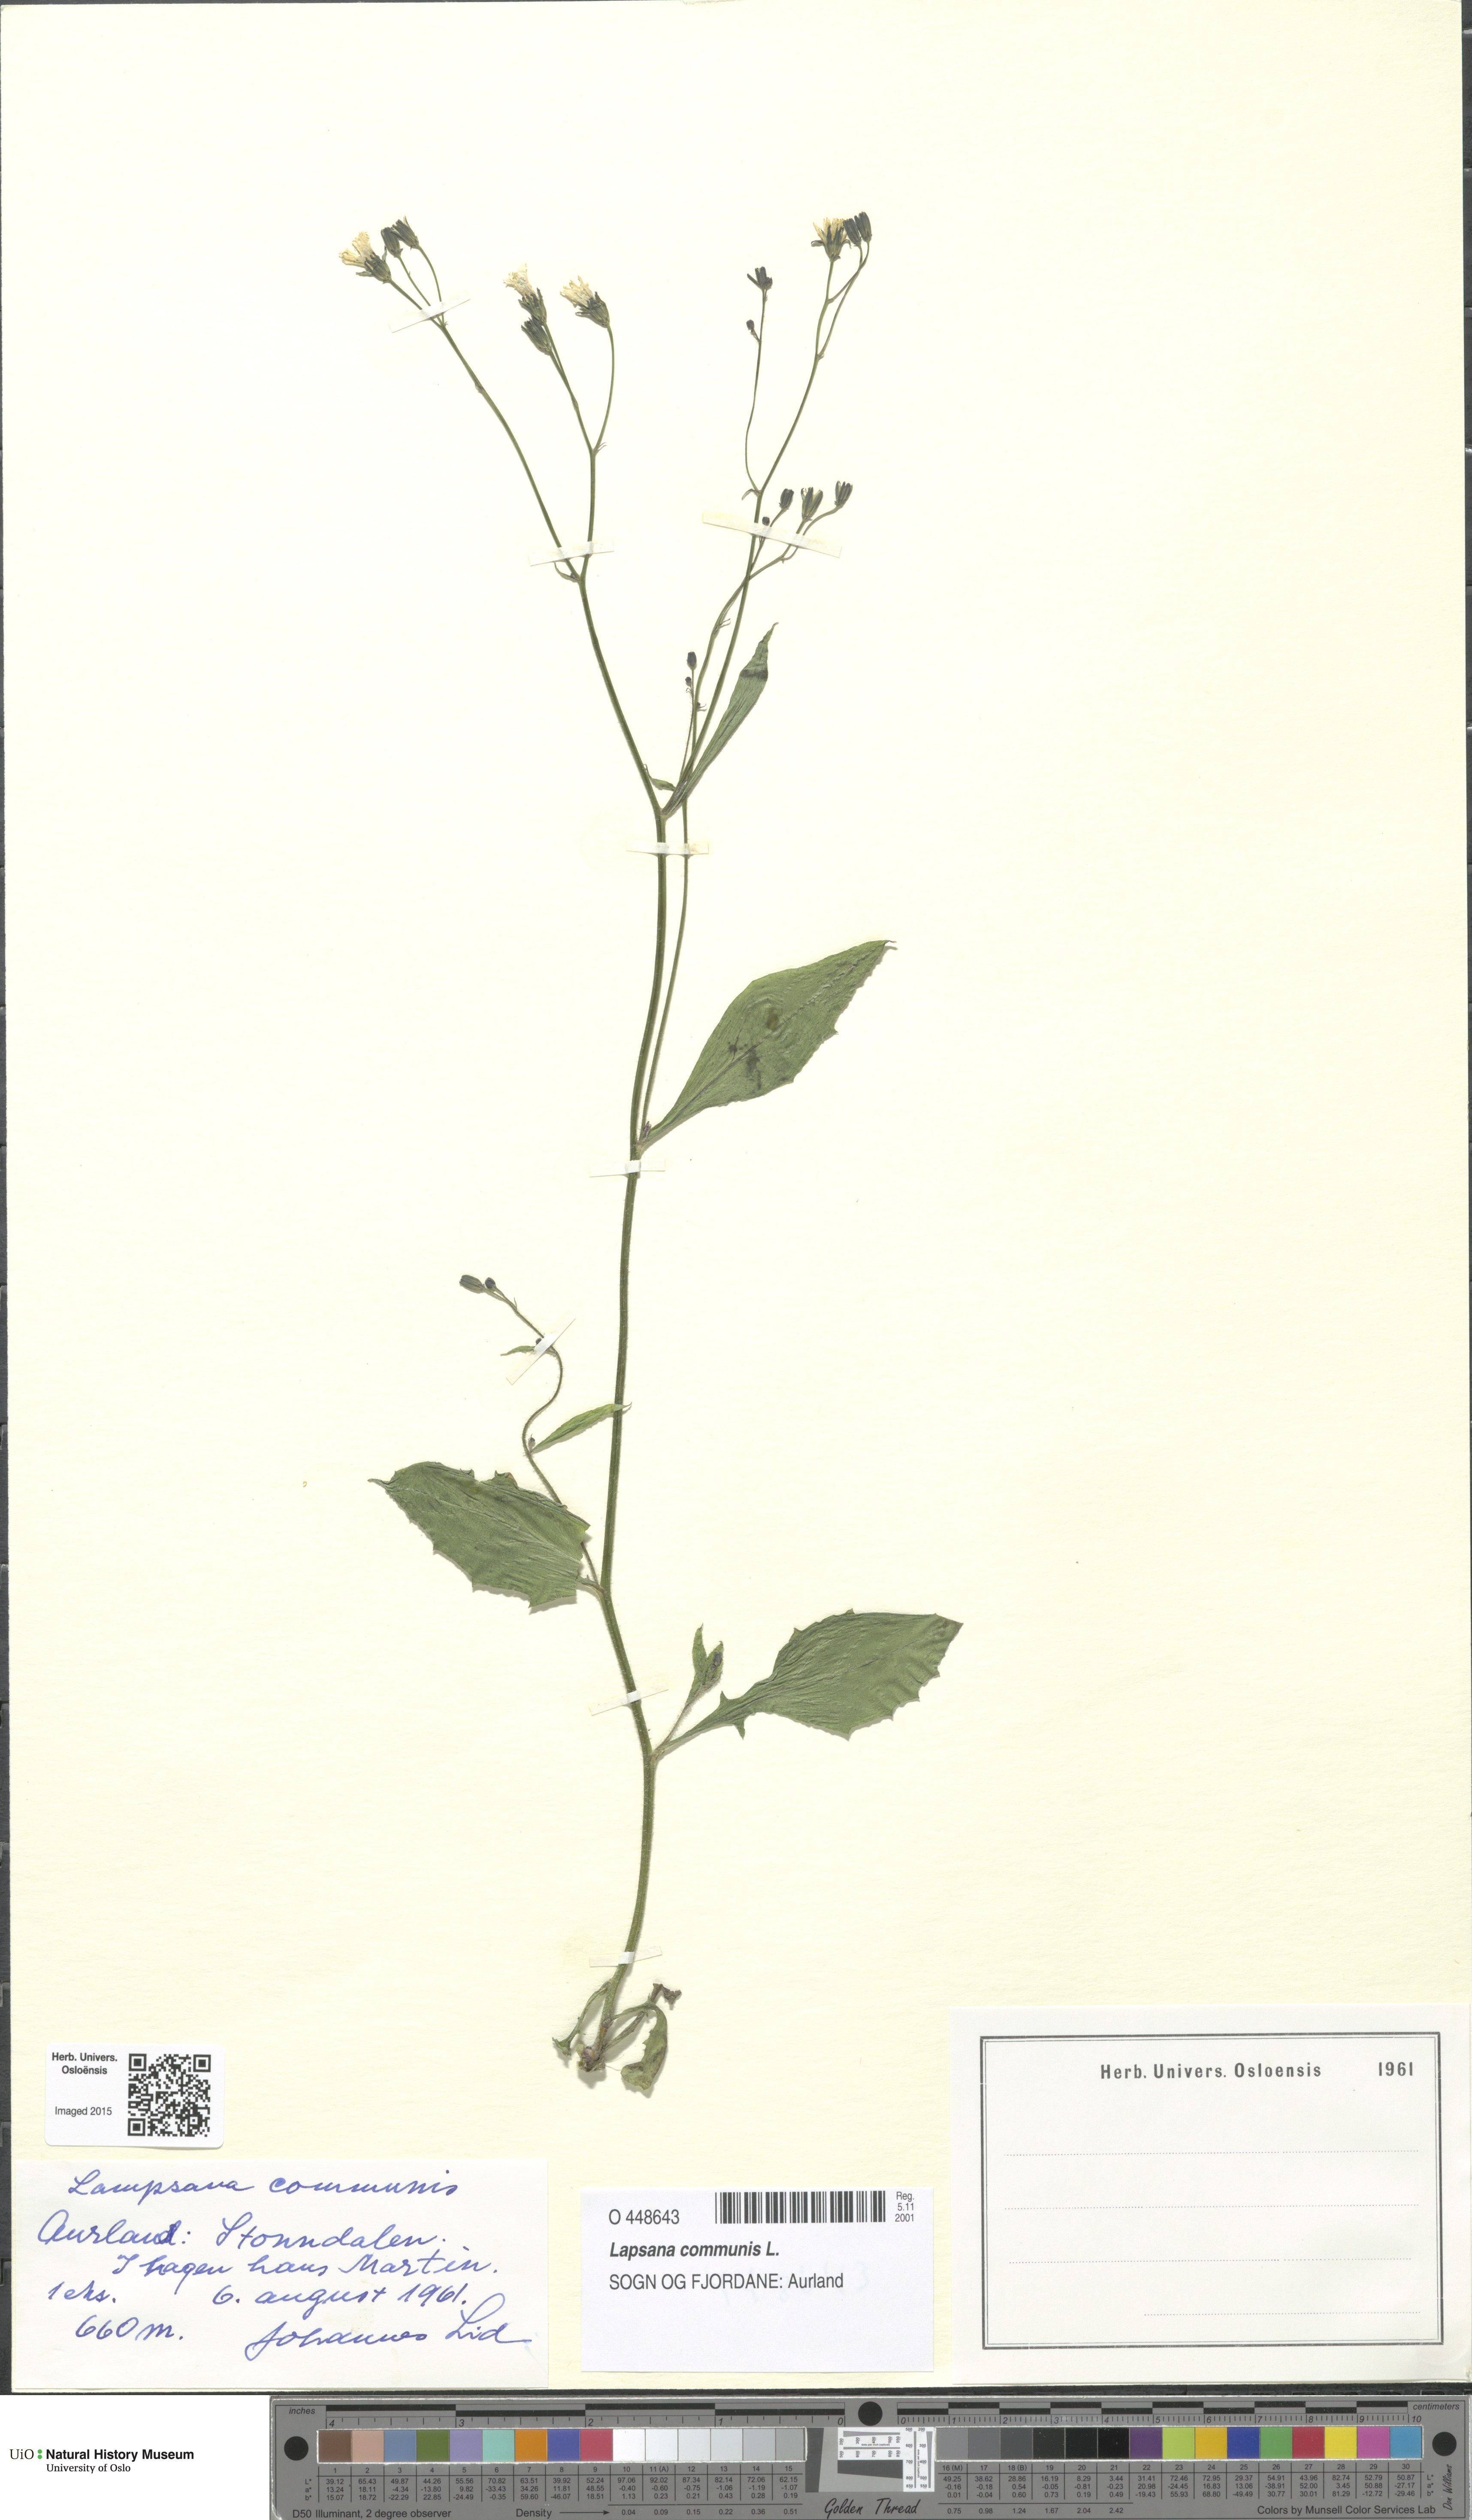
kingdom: Plantae
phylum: Tracheophyta
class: Magnoliopsida
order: Asterales
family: Asteraceae
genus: Lapsana
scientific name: Lapsana communis
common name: Nipplewort
